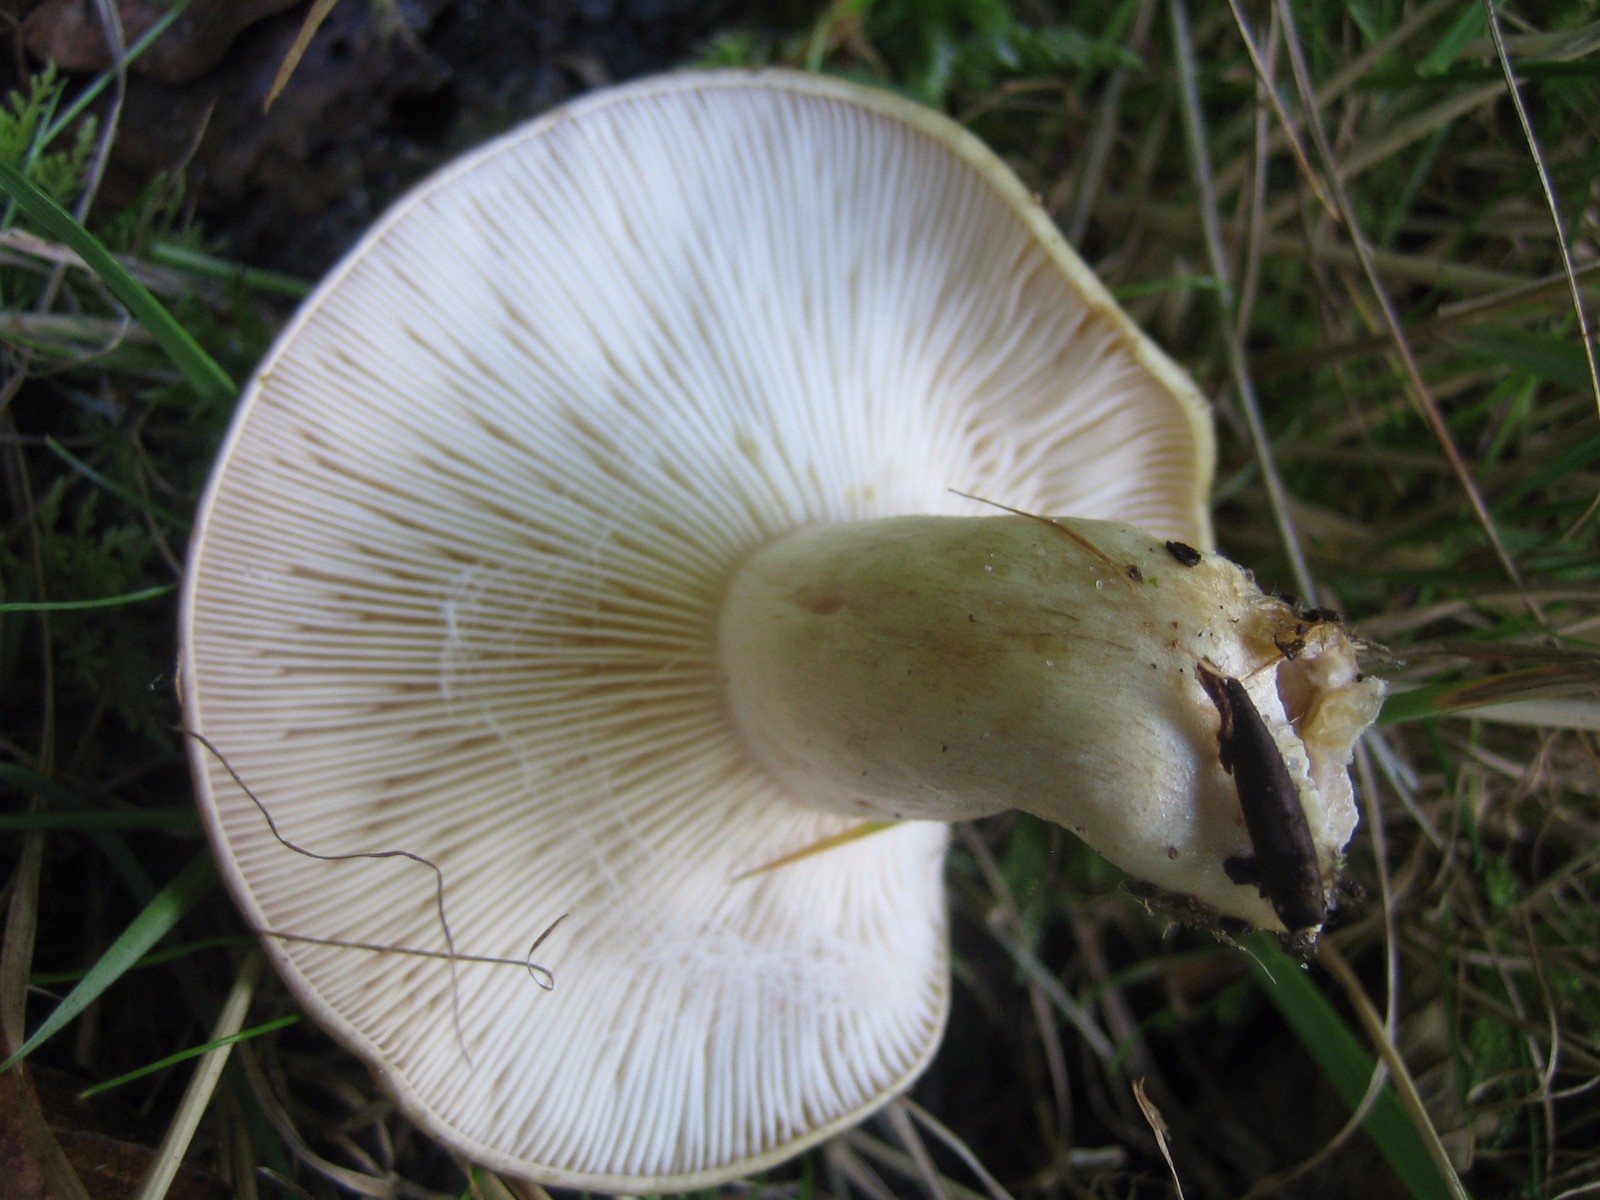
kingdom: Fungi
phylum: Basidiomycota
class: Agaricomycetes
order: Russulales
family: Russulaceae
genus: Lactarius
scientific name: Lactarius
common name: mælkehat
